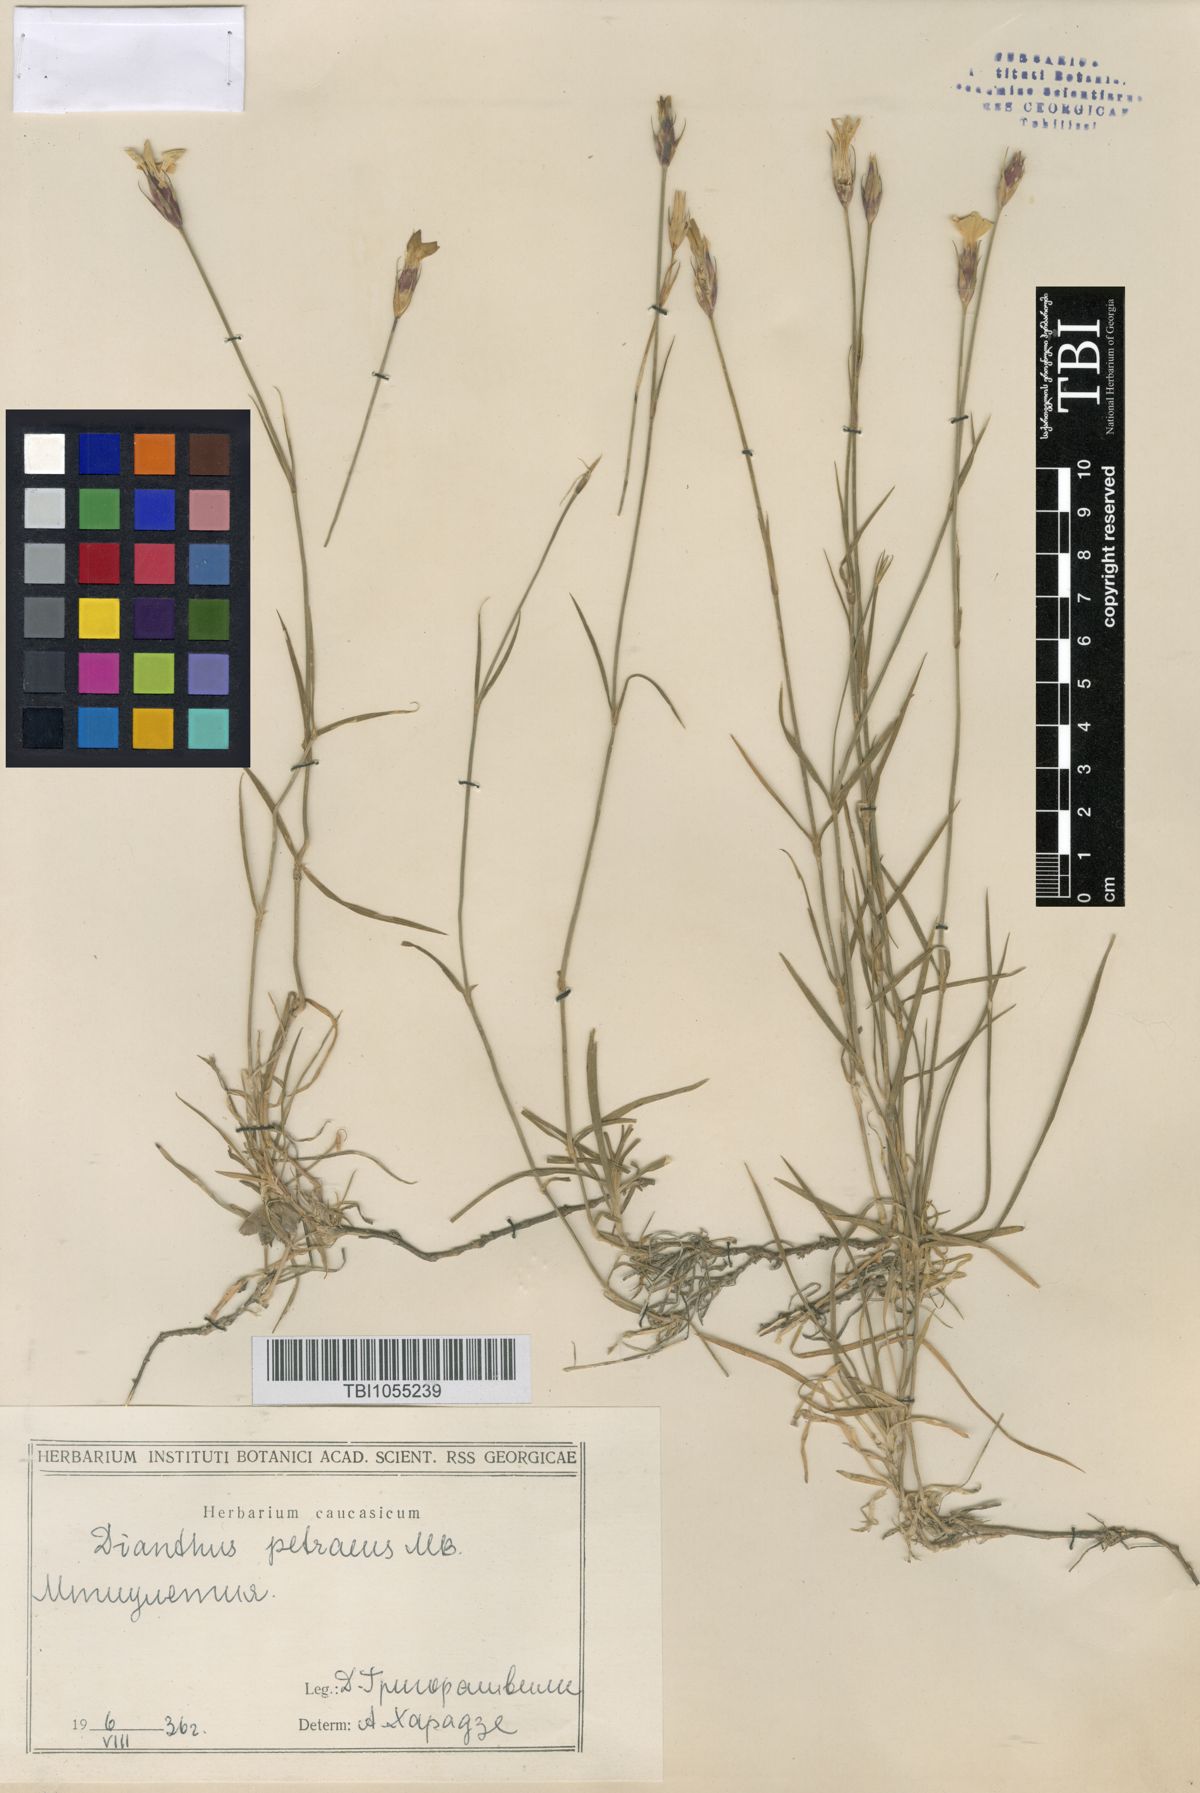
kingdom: Plantae
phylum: Tracheophyta
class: Magnoliopsida
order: Caryophyllales
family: Caryophyllaceae
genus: Dianthus
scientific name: Dianthus cretaceus
